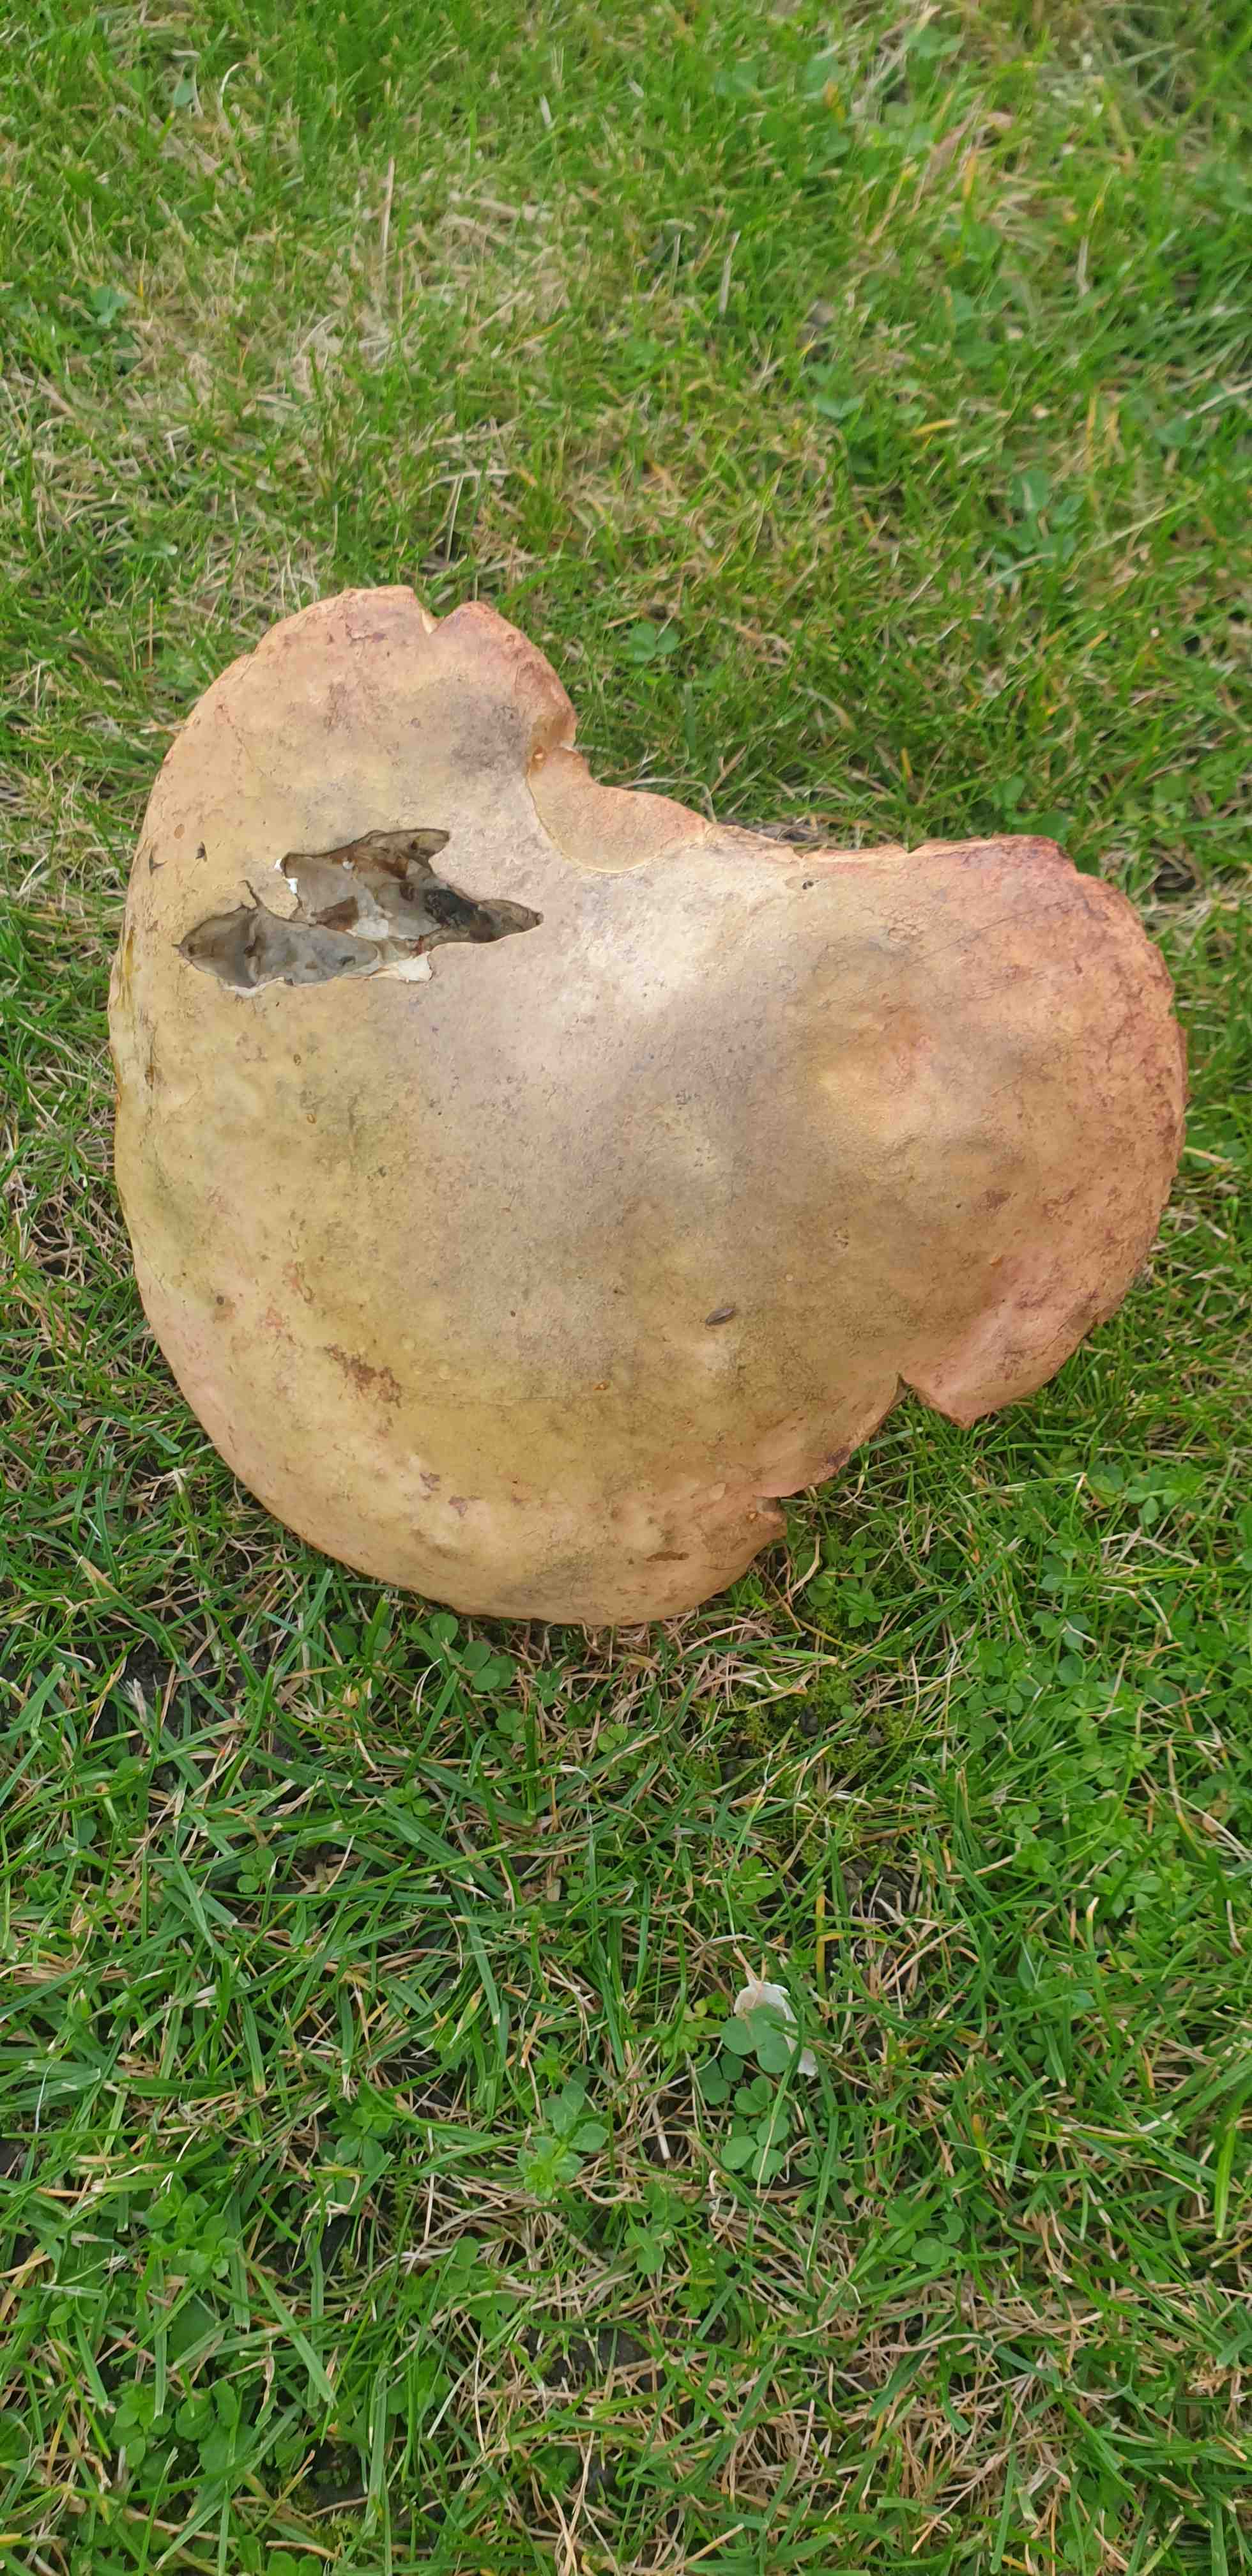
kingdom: Fungi
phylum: Basidiomycota
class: Agaricomycetes
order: Boletales
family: Boletaceae
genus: Suillellus
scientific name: Suillellus luridus
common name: netstokket indigorørhat
